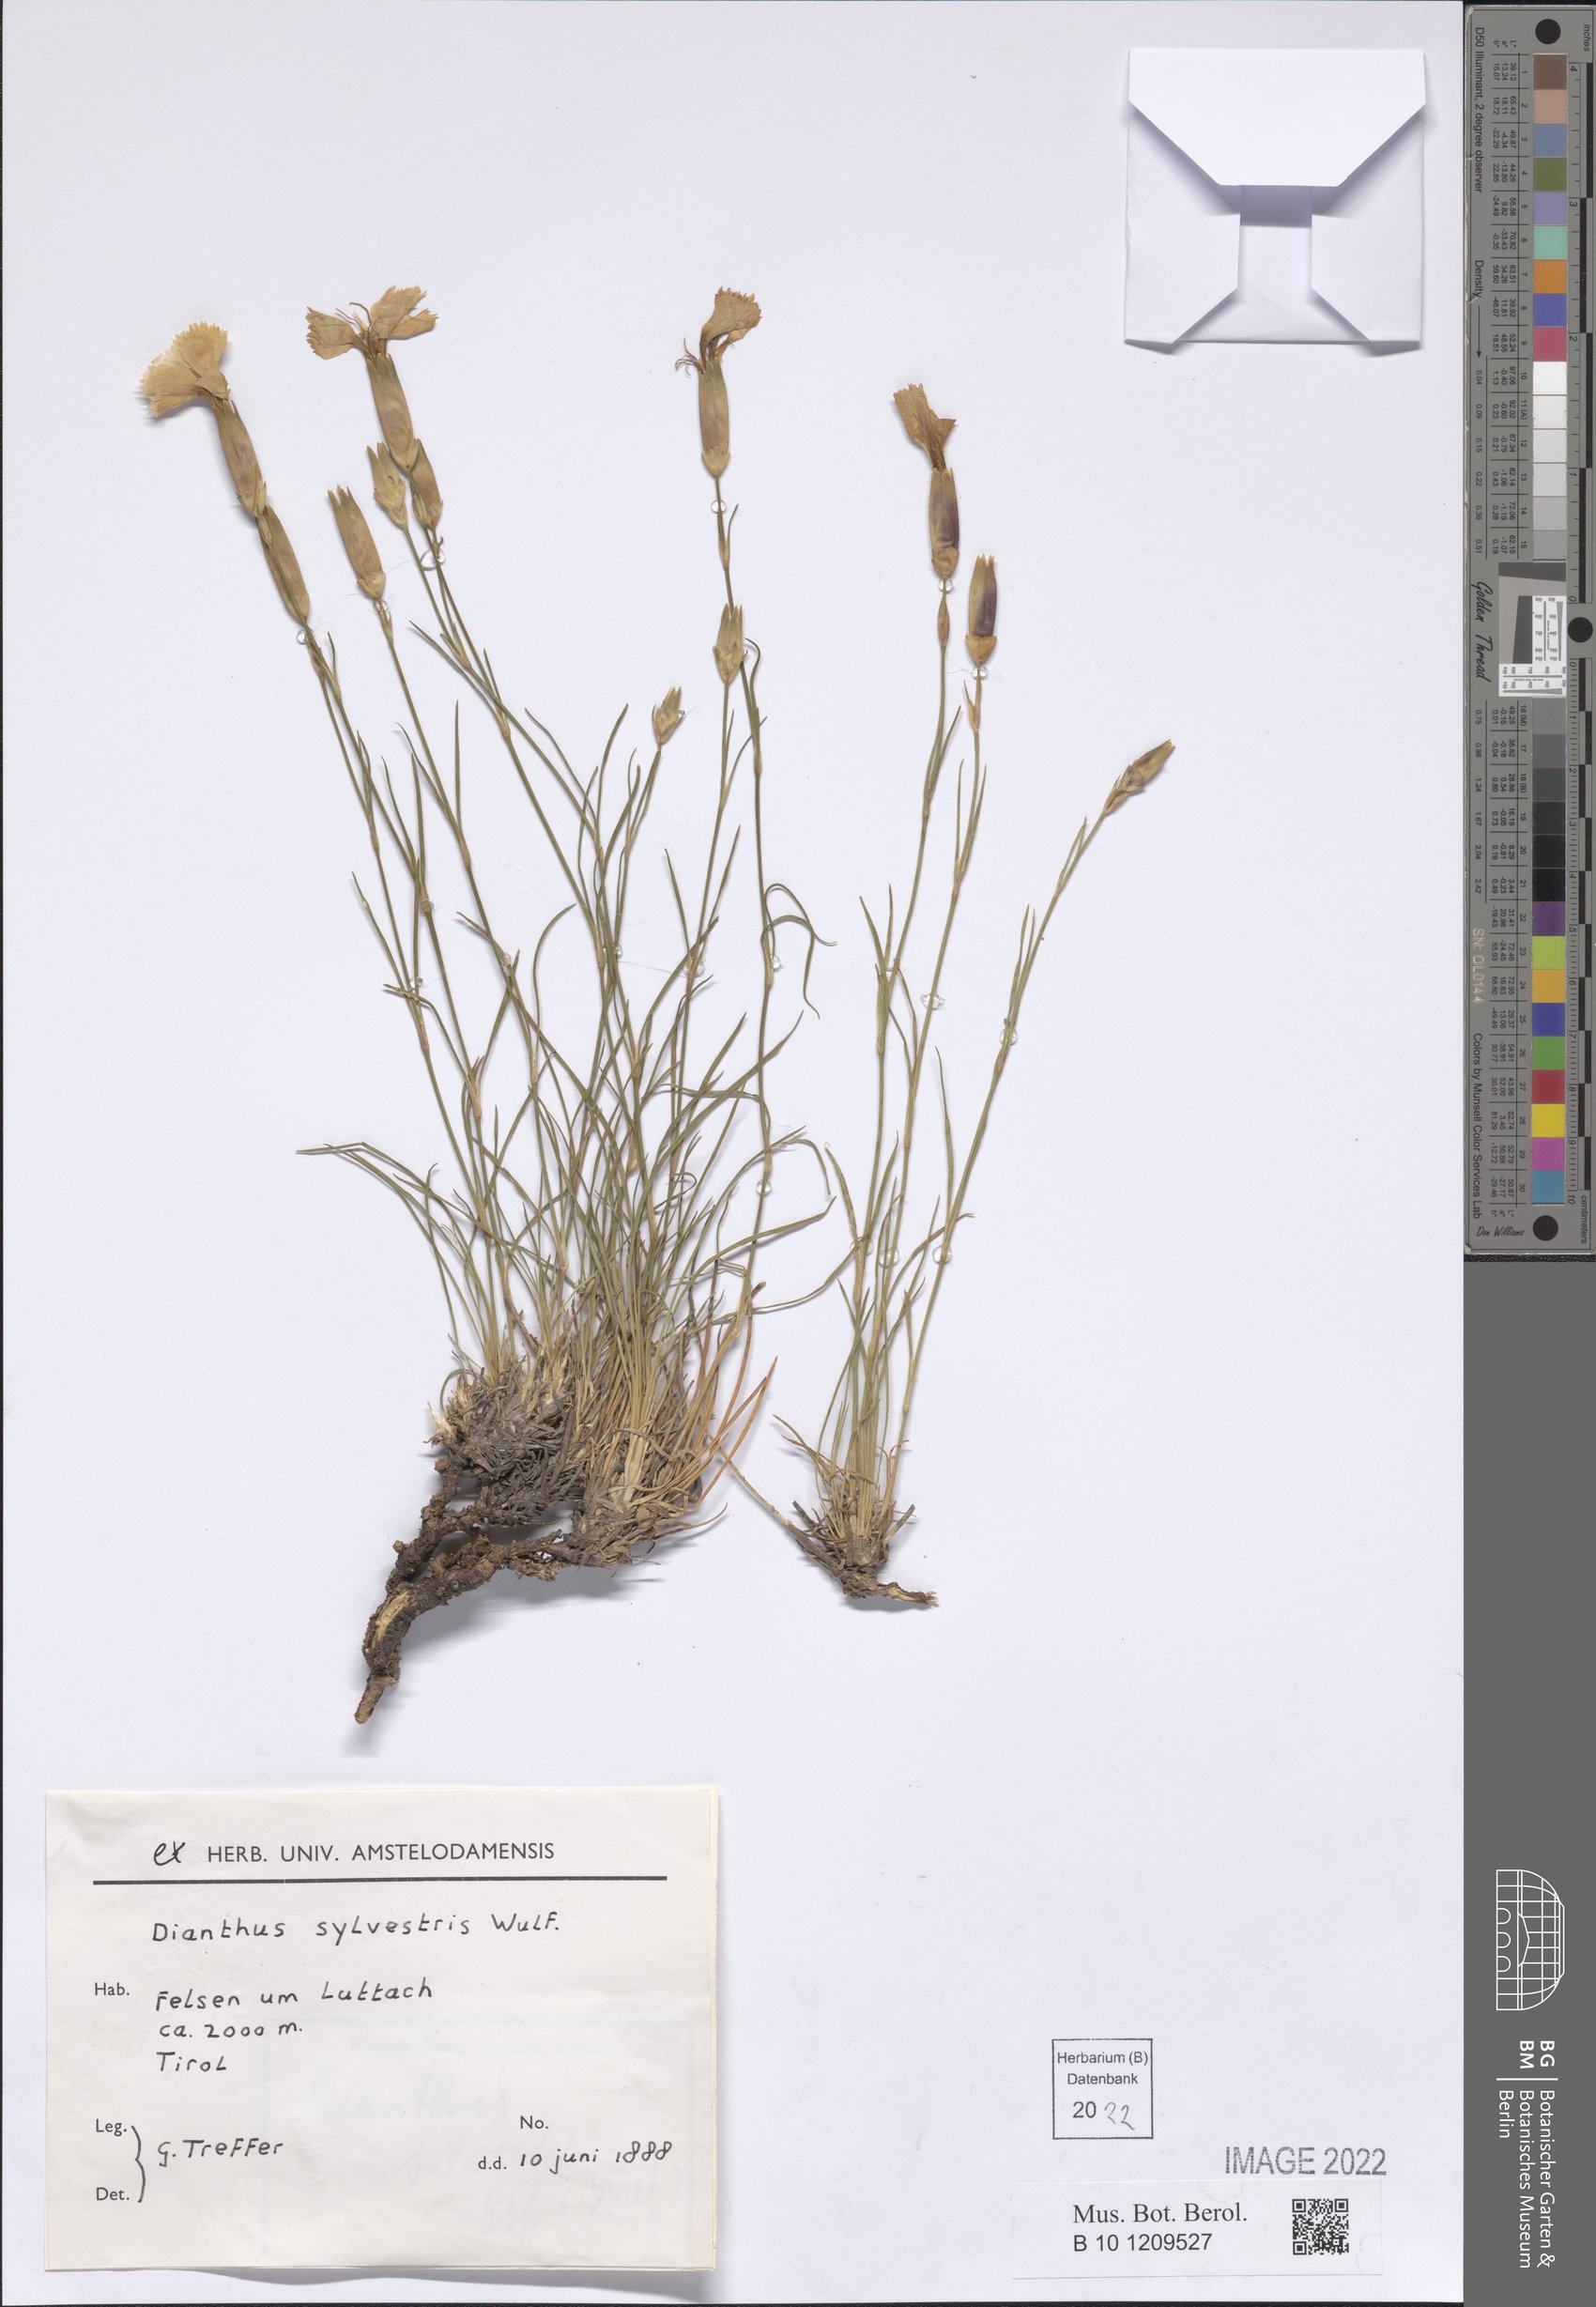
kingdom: Plantae
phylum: Tracheophyta
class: Magnoliopsida
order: Caryophyllales
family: Caryophyllaceae
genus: Dianthus
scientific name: Dianthus sylvestris
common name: Wood pink
